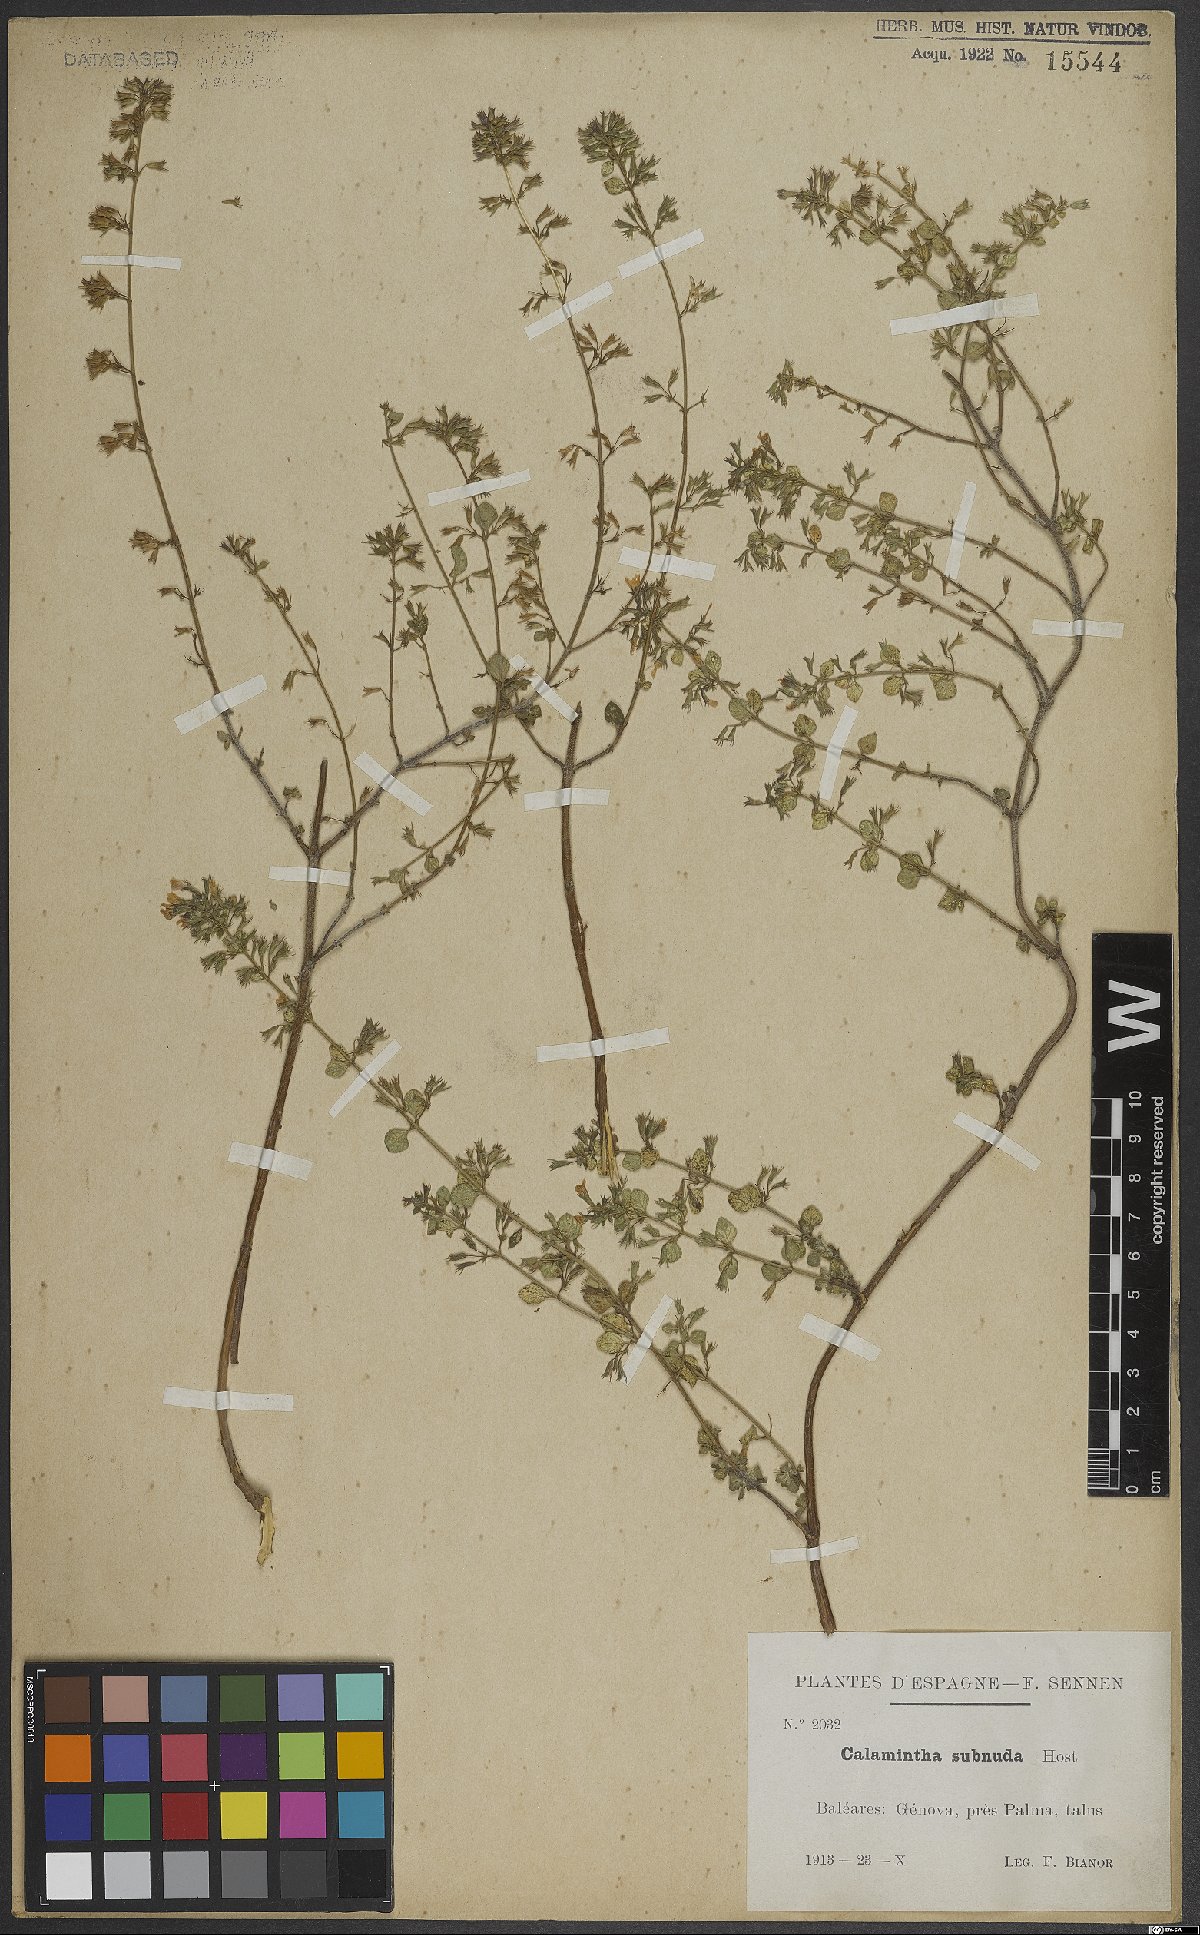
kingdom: Plantae
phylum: Tracheophyta
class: Magnoliopsida
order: Lamiales
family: Lamiaceae
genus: Clinopodium
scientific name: Clinopodium nepeta
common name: Lesser calamint
